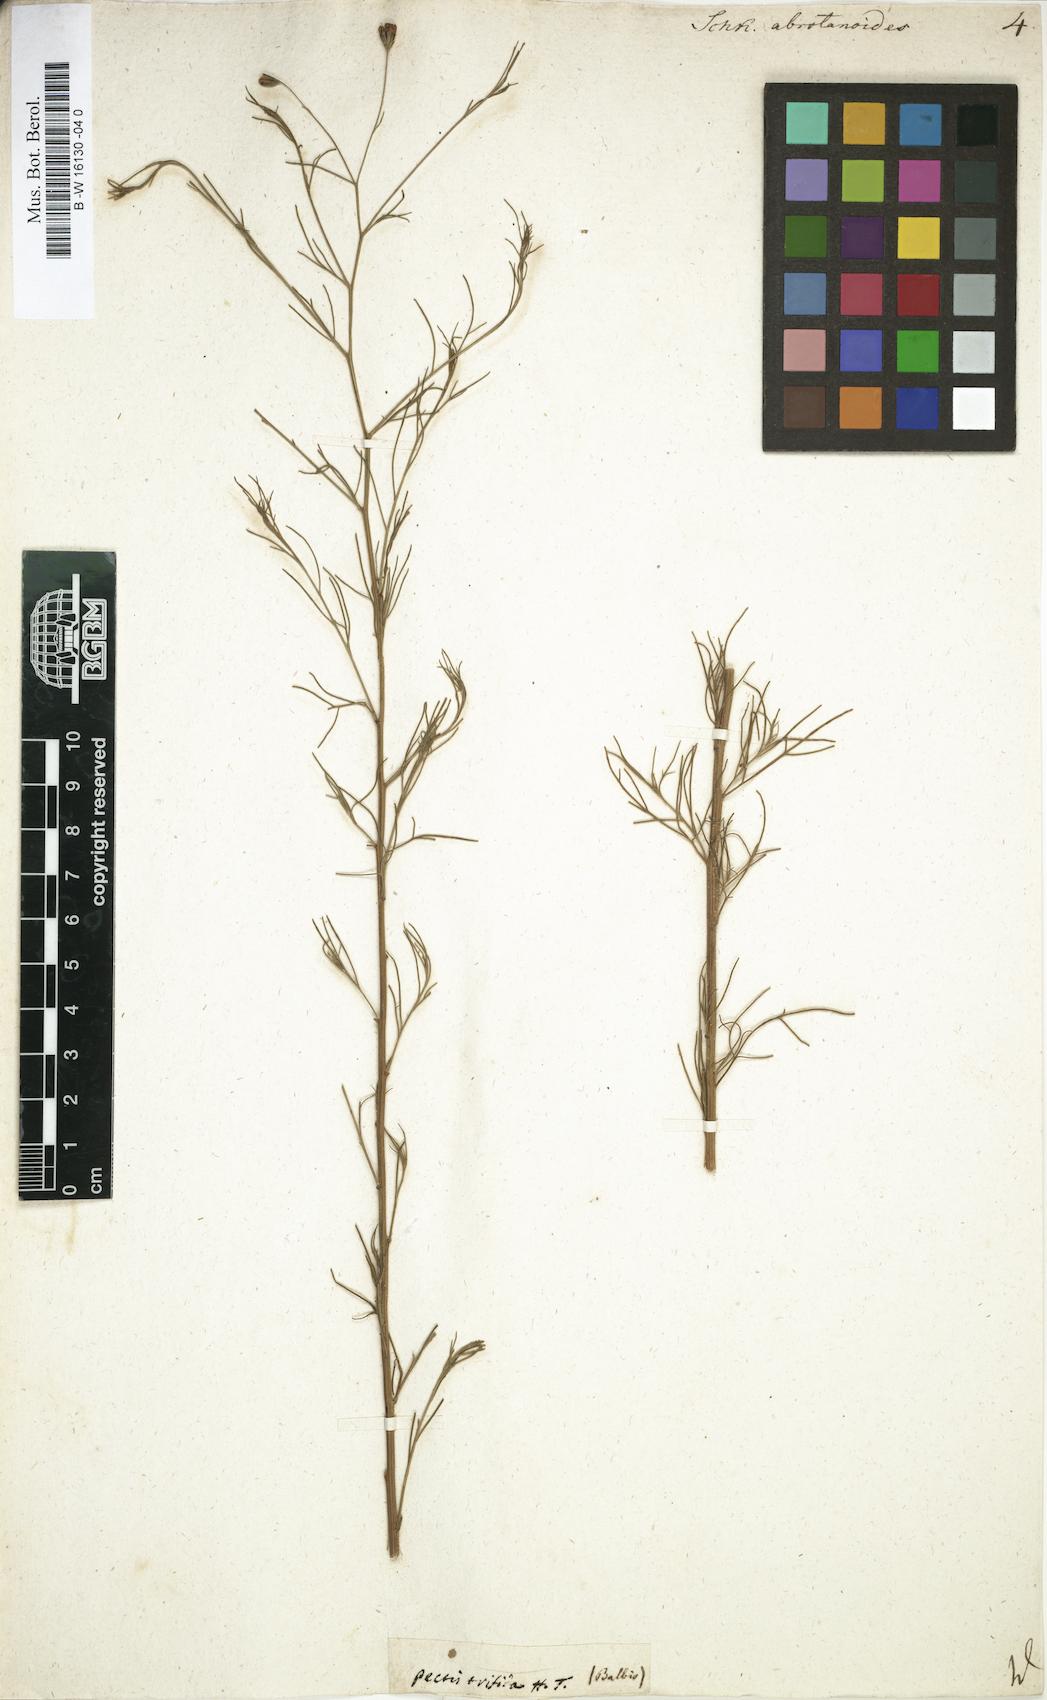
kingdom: Plantae
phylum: Tracheophyta
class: Magnoliopsida
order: Asterales
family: Asteraceae
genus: Schkuhria
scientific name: Schkuhria pinnata
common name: Dwarf marigold
